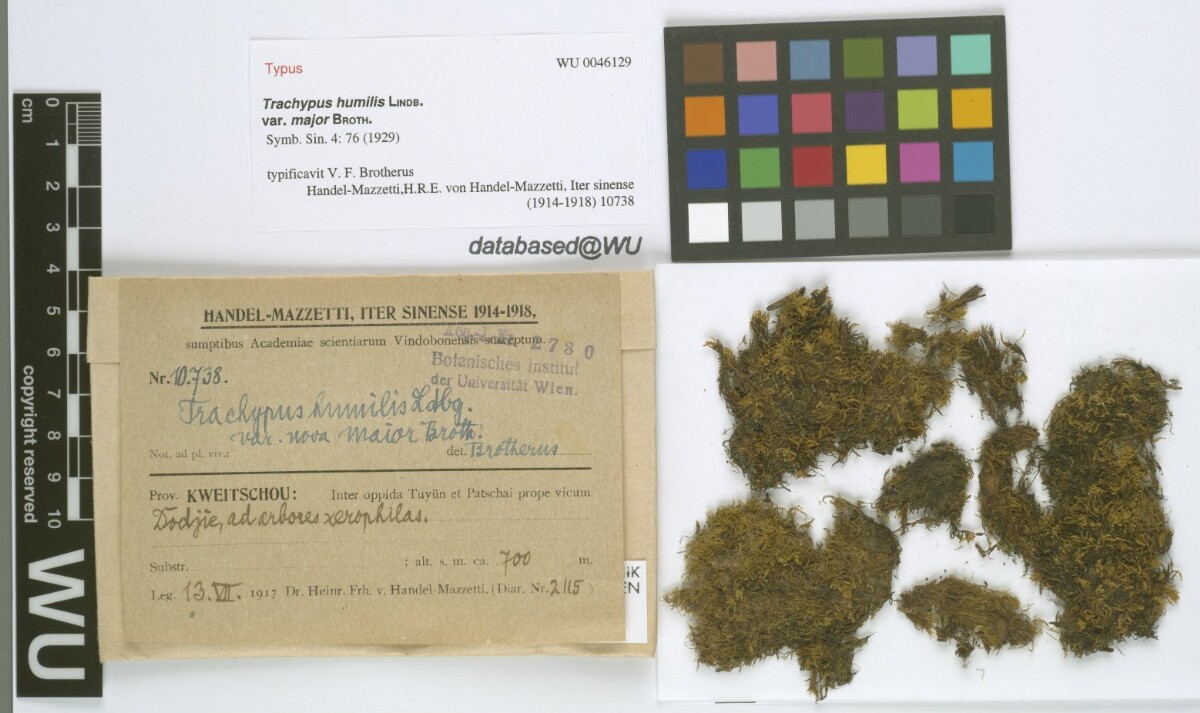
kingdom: Plantae
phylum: Bryophyta
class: Bryopsida
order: Hypnales
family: Meteoriaceae
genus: Trachypus
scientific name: Trachypus humilis
